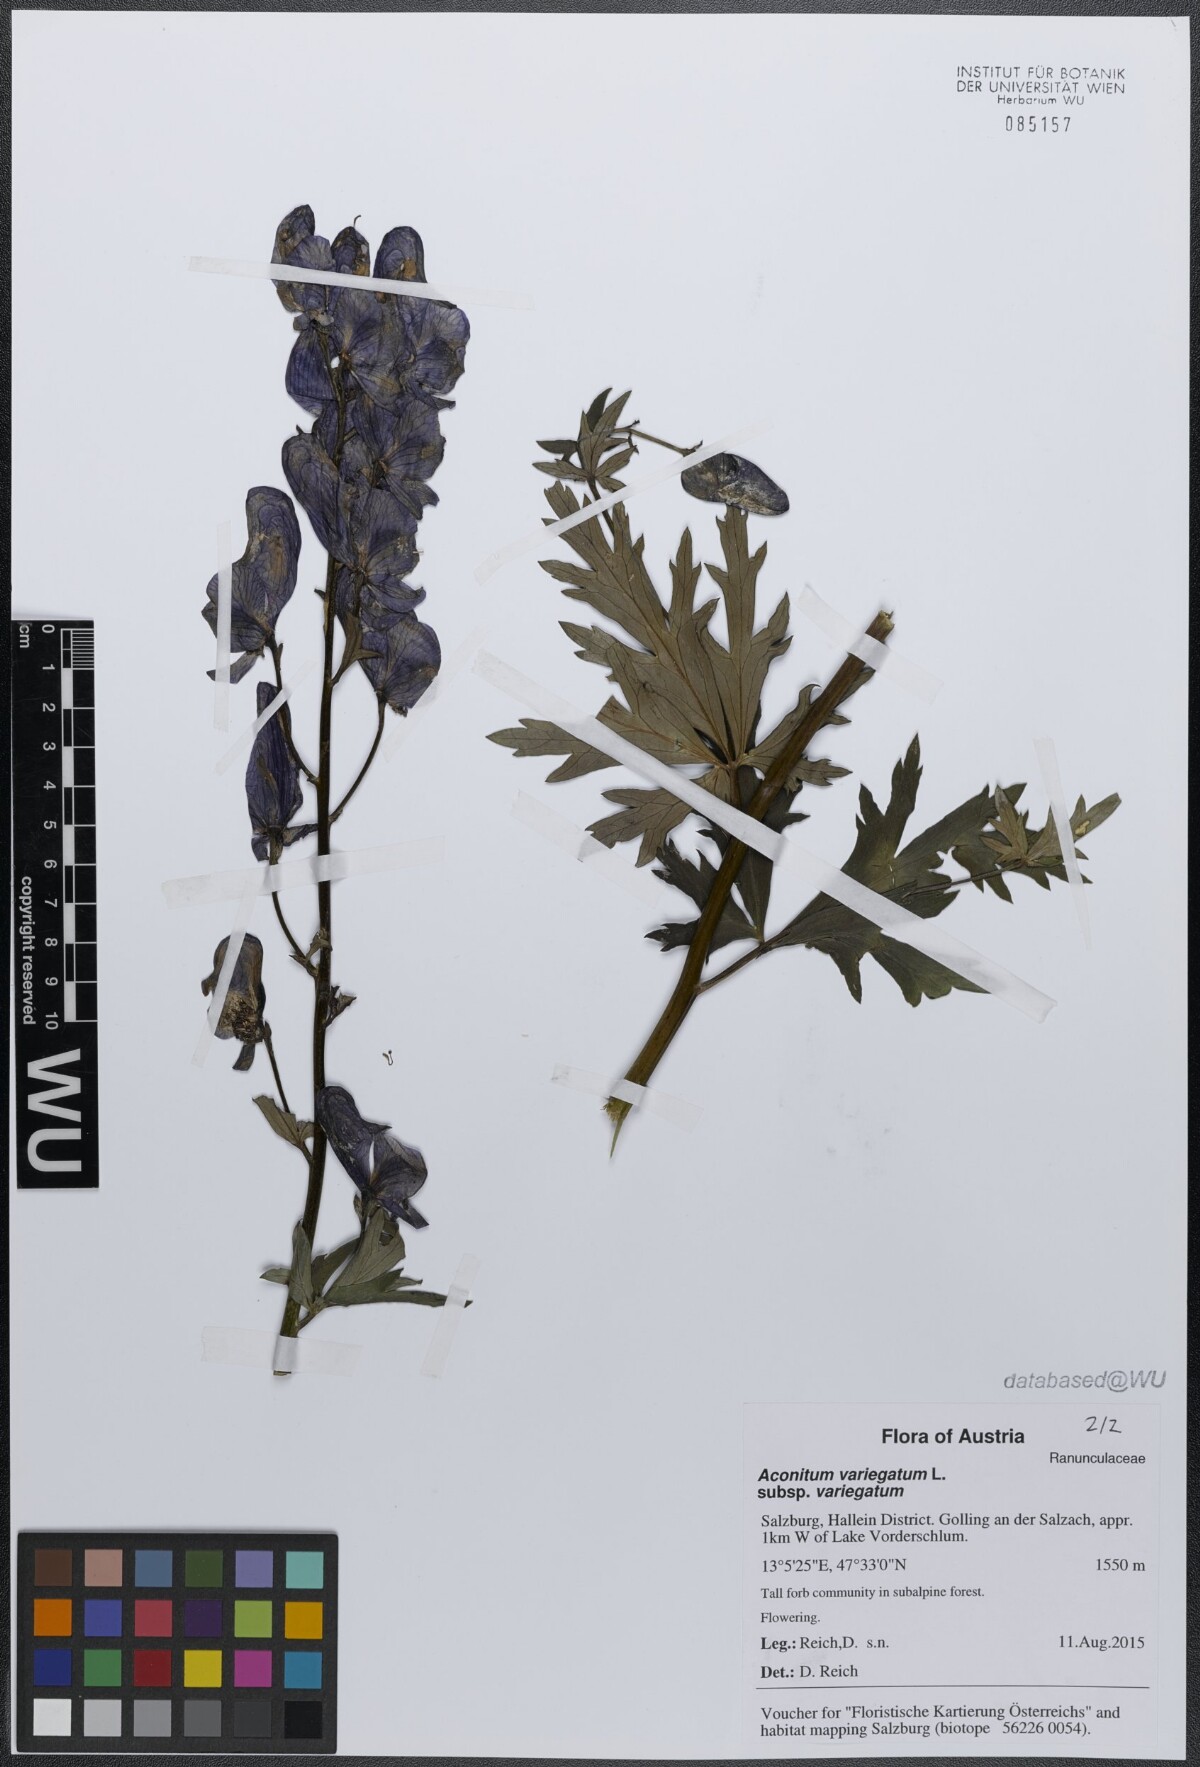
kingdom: Plantae
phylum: Tracheophyta
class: Magnoliopsida
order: Ranunculales
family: Ranunculaceae
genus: Aconitum
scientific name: Aconitum variegatum
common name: Manchurian monkshood
